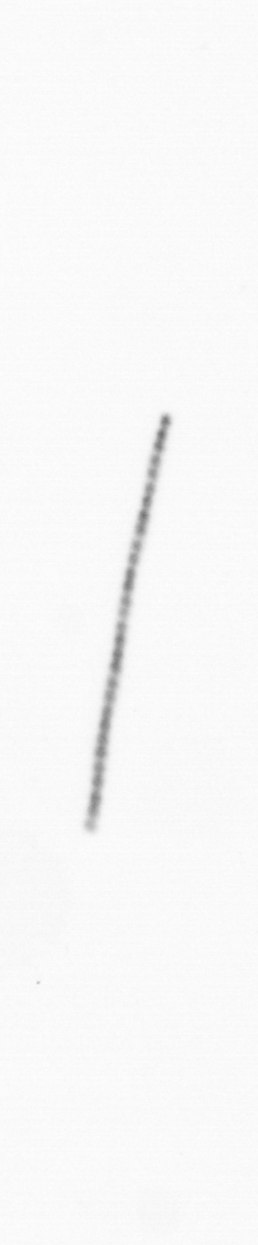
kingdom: Chromista
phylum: Ochrophyta
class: Bacillariophyceae
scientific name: Bacillariophyceae
